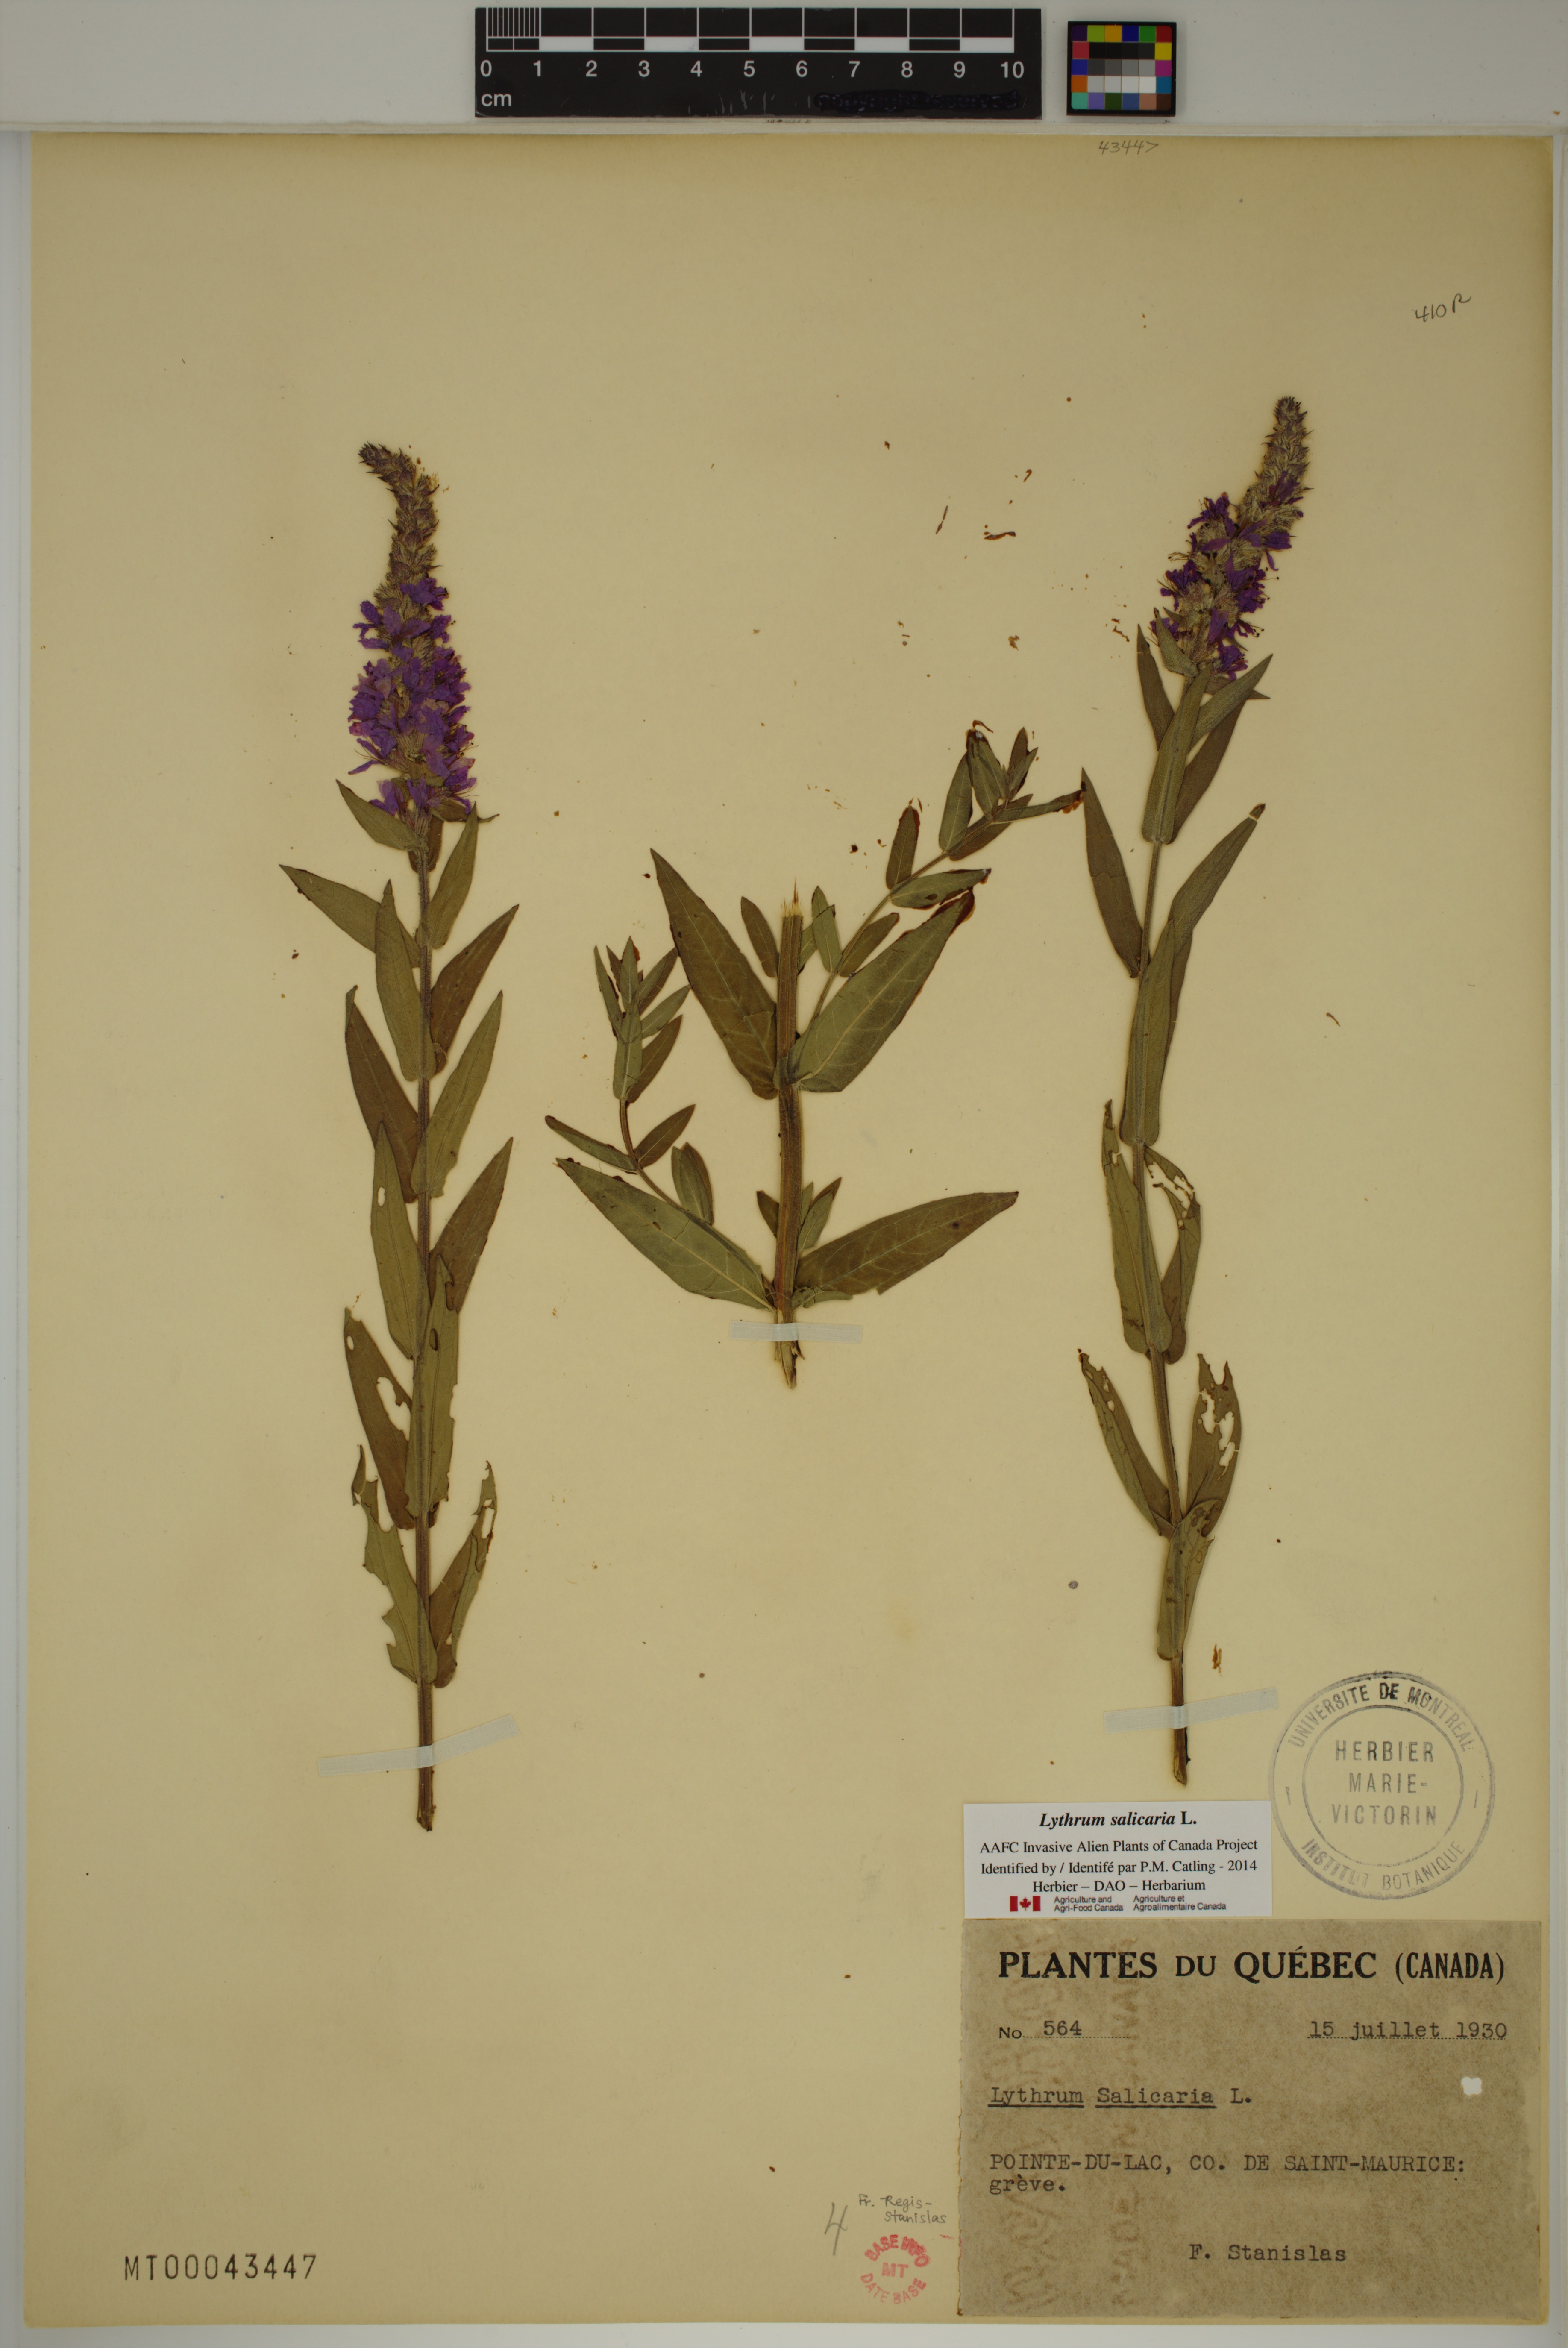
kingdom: Plantae
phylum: Tracheophyta
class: Magnoliopsida
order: Myrtales
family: Lythraceae
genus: Lythrum
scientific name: Lythrum salicaria
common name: Purple loosestrife
